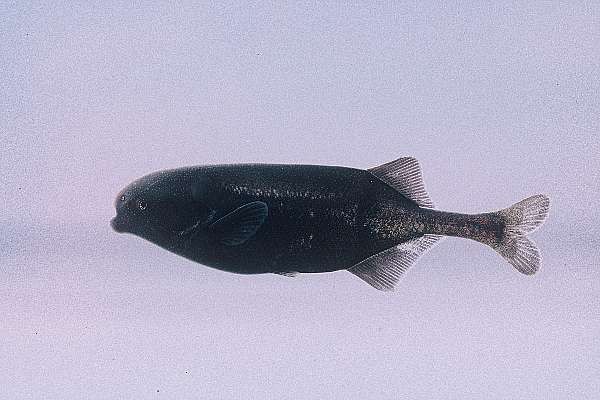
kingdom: Animalia
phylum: Chordata
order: Osteoglossiformes
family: Mormyridae
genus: Marcusenius
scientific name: Marcusenius livingstonii
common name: Livingstone's bulldog
